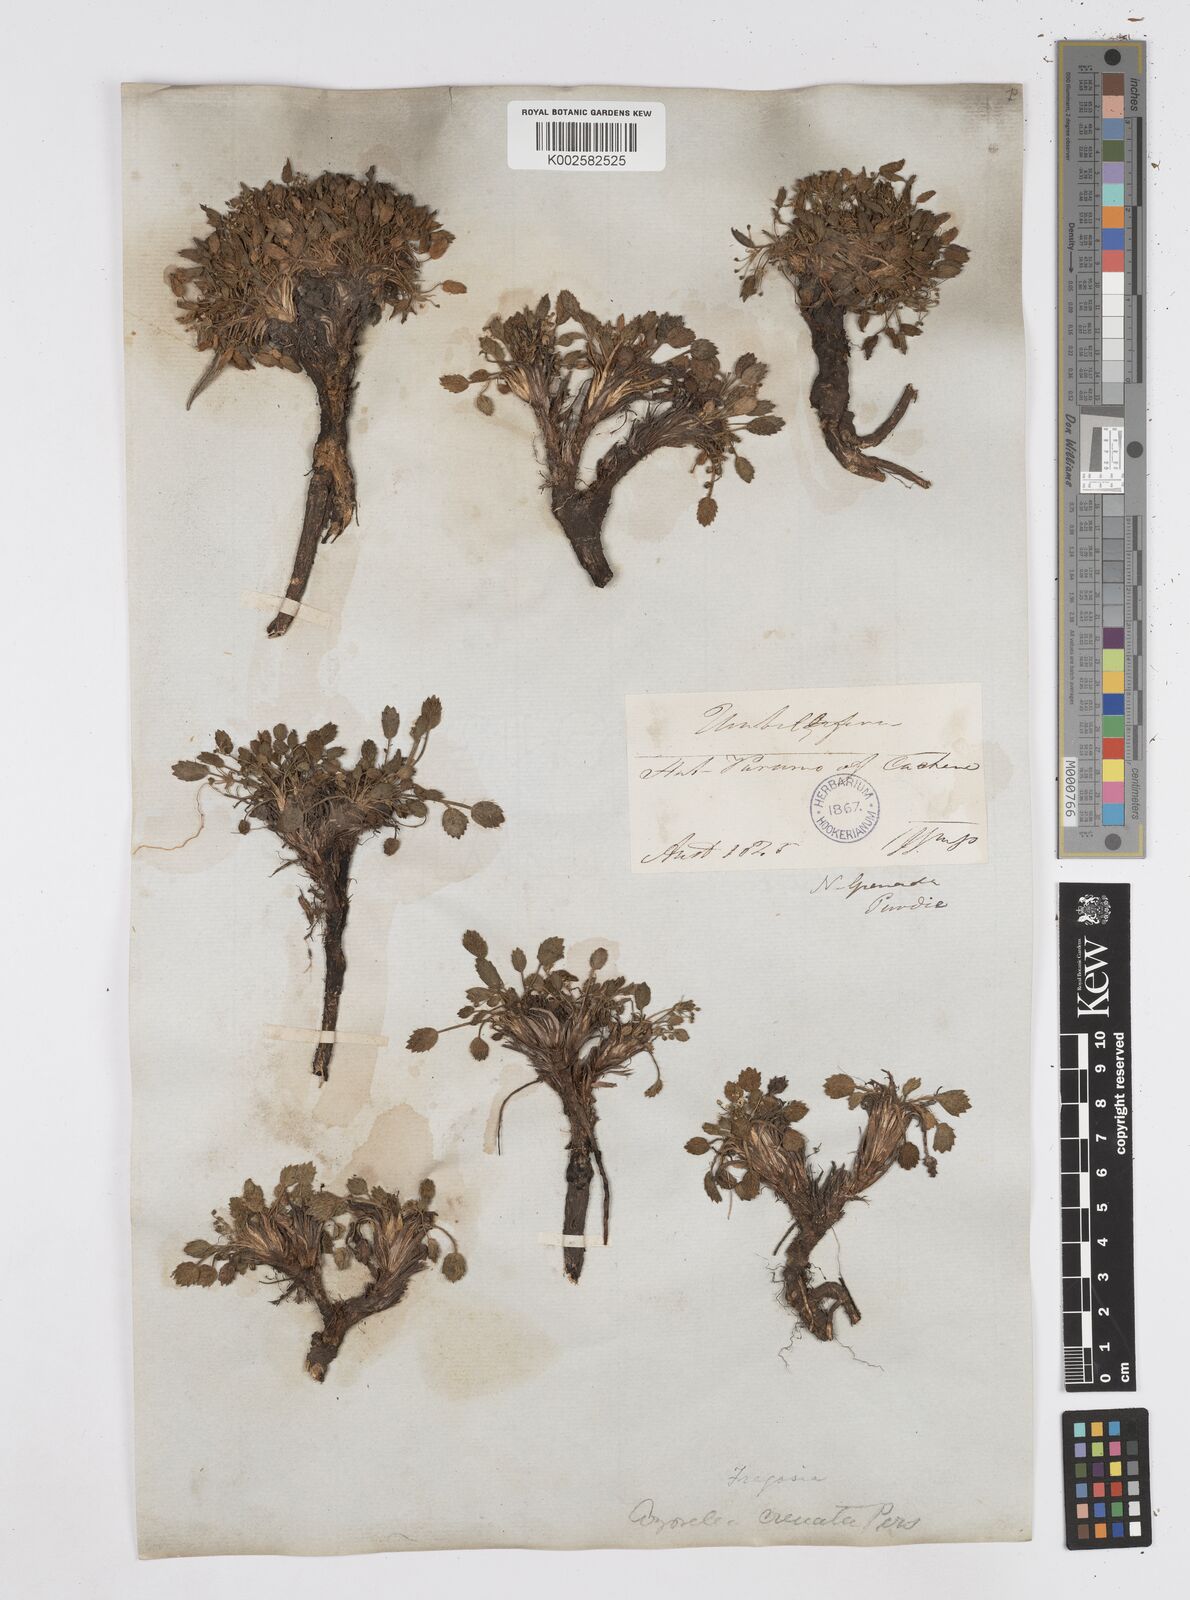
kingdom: Plantae
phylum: Tracheophyta
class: Magnoliopsida
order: Apiales
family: Apiaceae
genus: Azorella
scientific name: Azorella crenata
